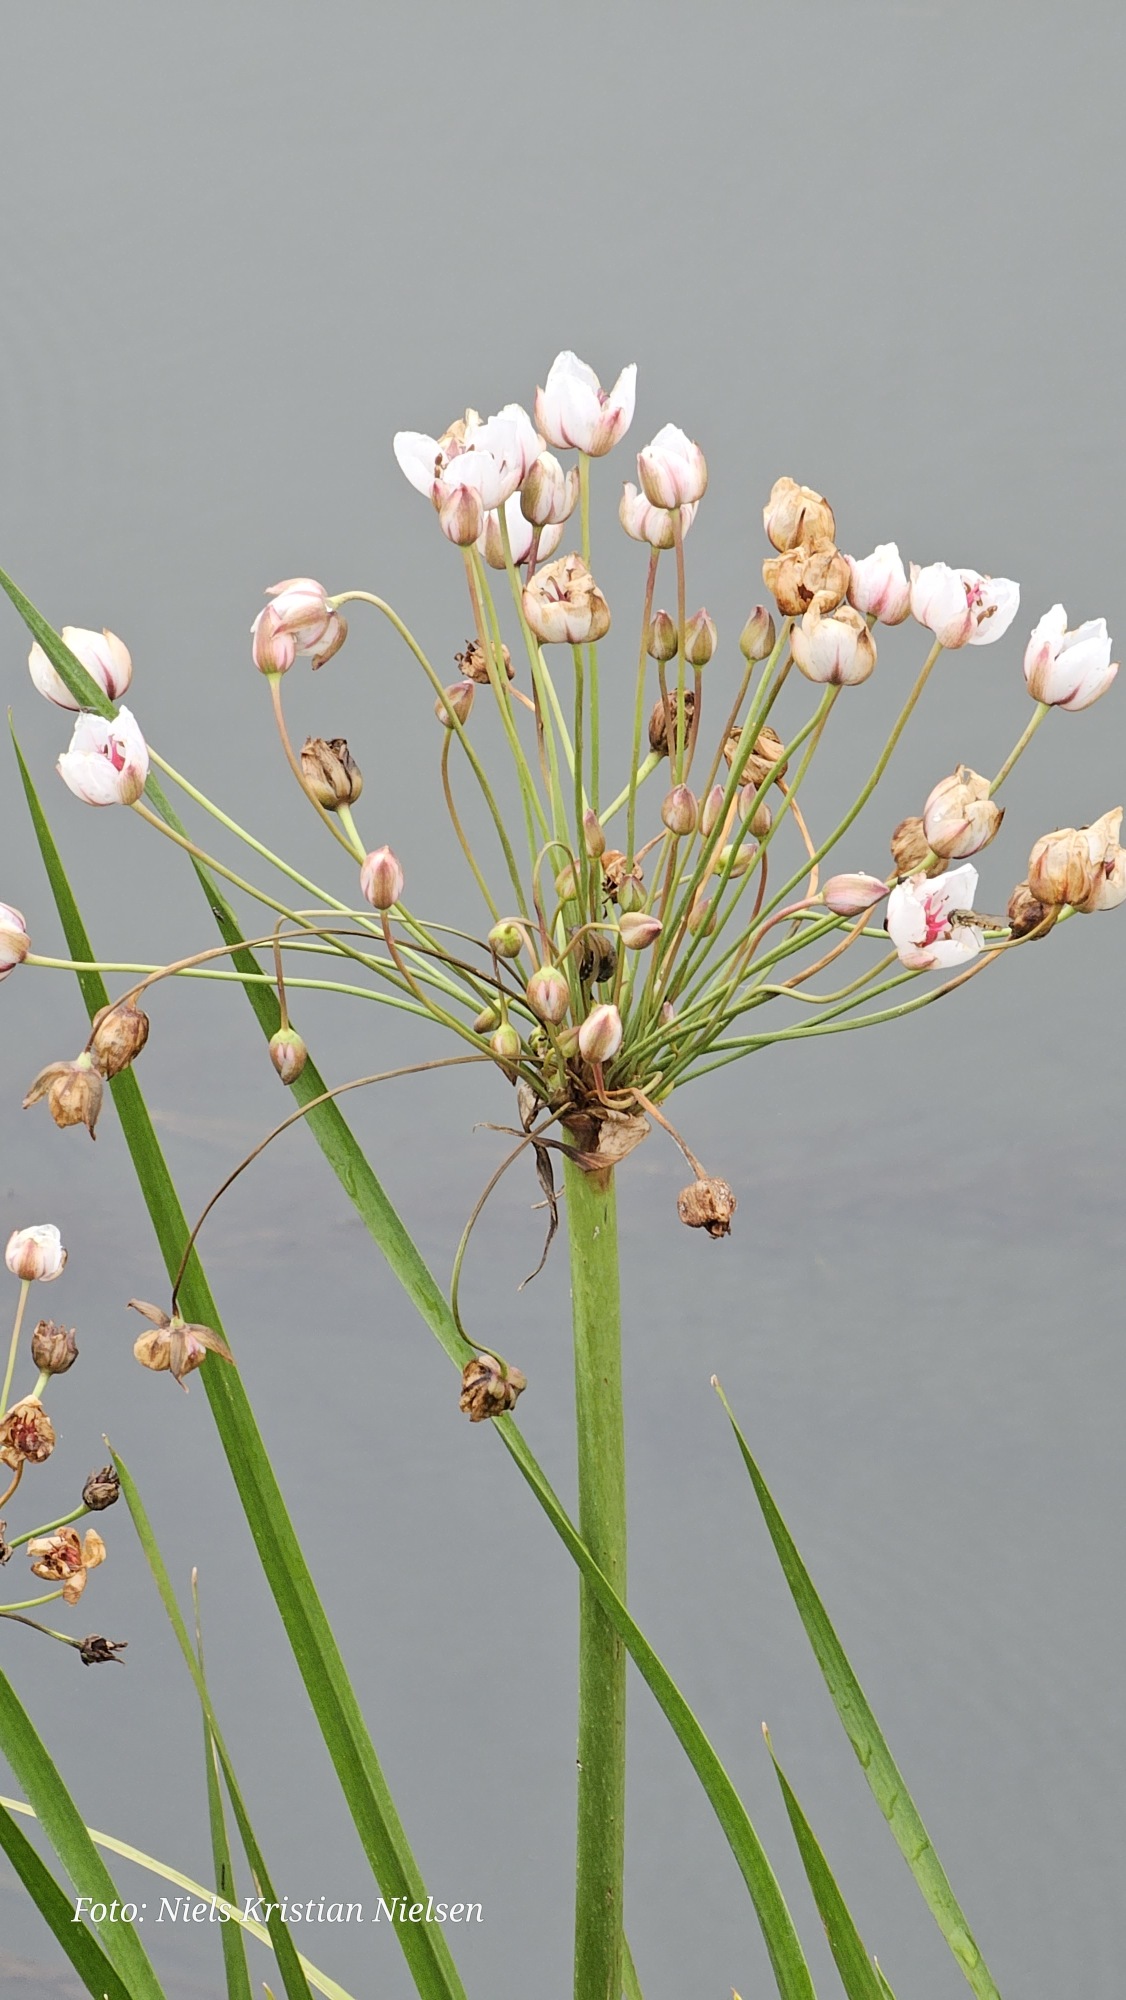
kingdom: Plantae
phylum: Tracheophyta
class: Liliopsida
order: Alismatales
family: Butomaceae
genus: Butomus
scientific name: Butomus umbellatus
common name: Brudelys
